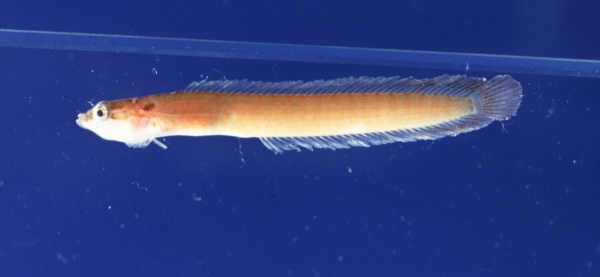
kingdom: Animalia
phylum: Chordata
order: Perciformes
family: Pseudochromidae
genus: Natalichthys
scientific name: Natalichthys sam
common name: Nail snakelet
